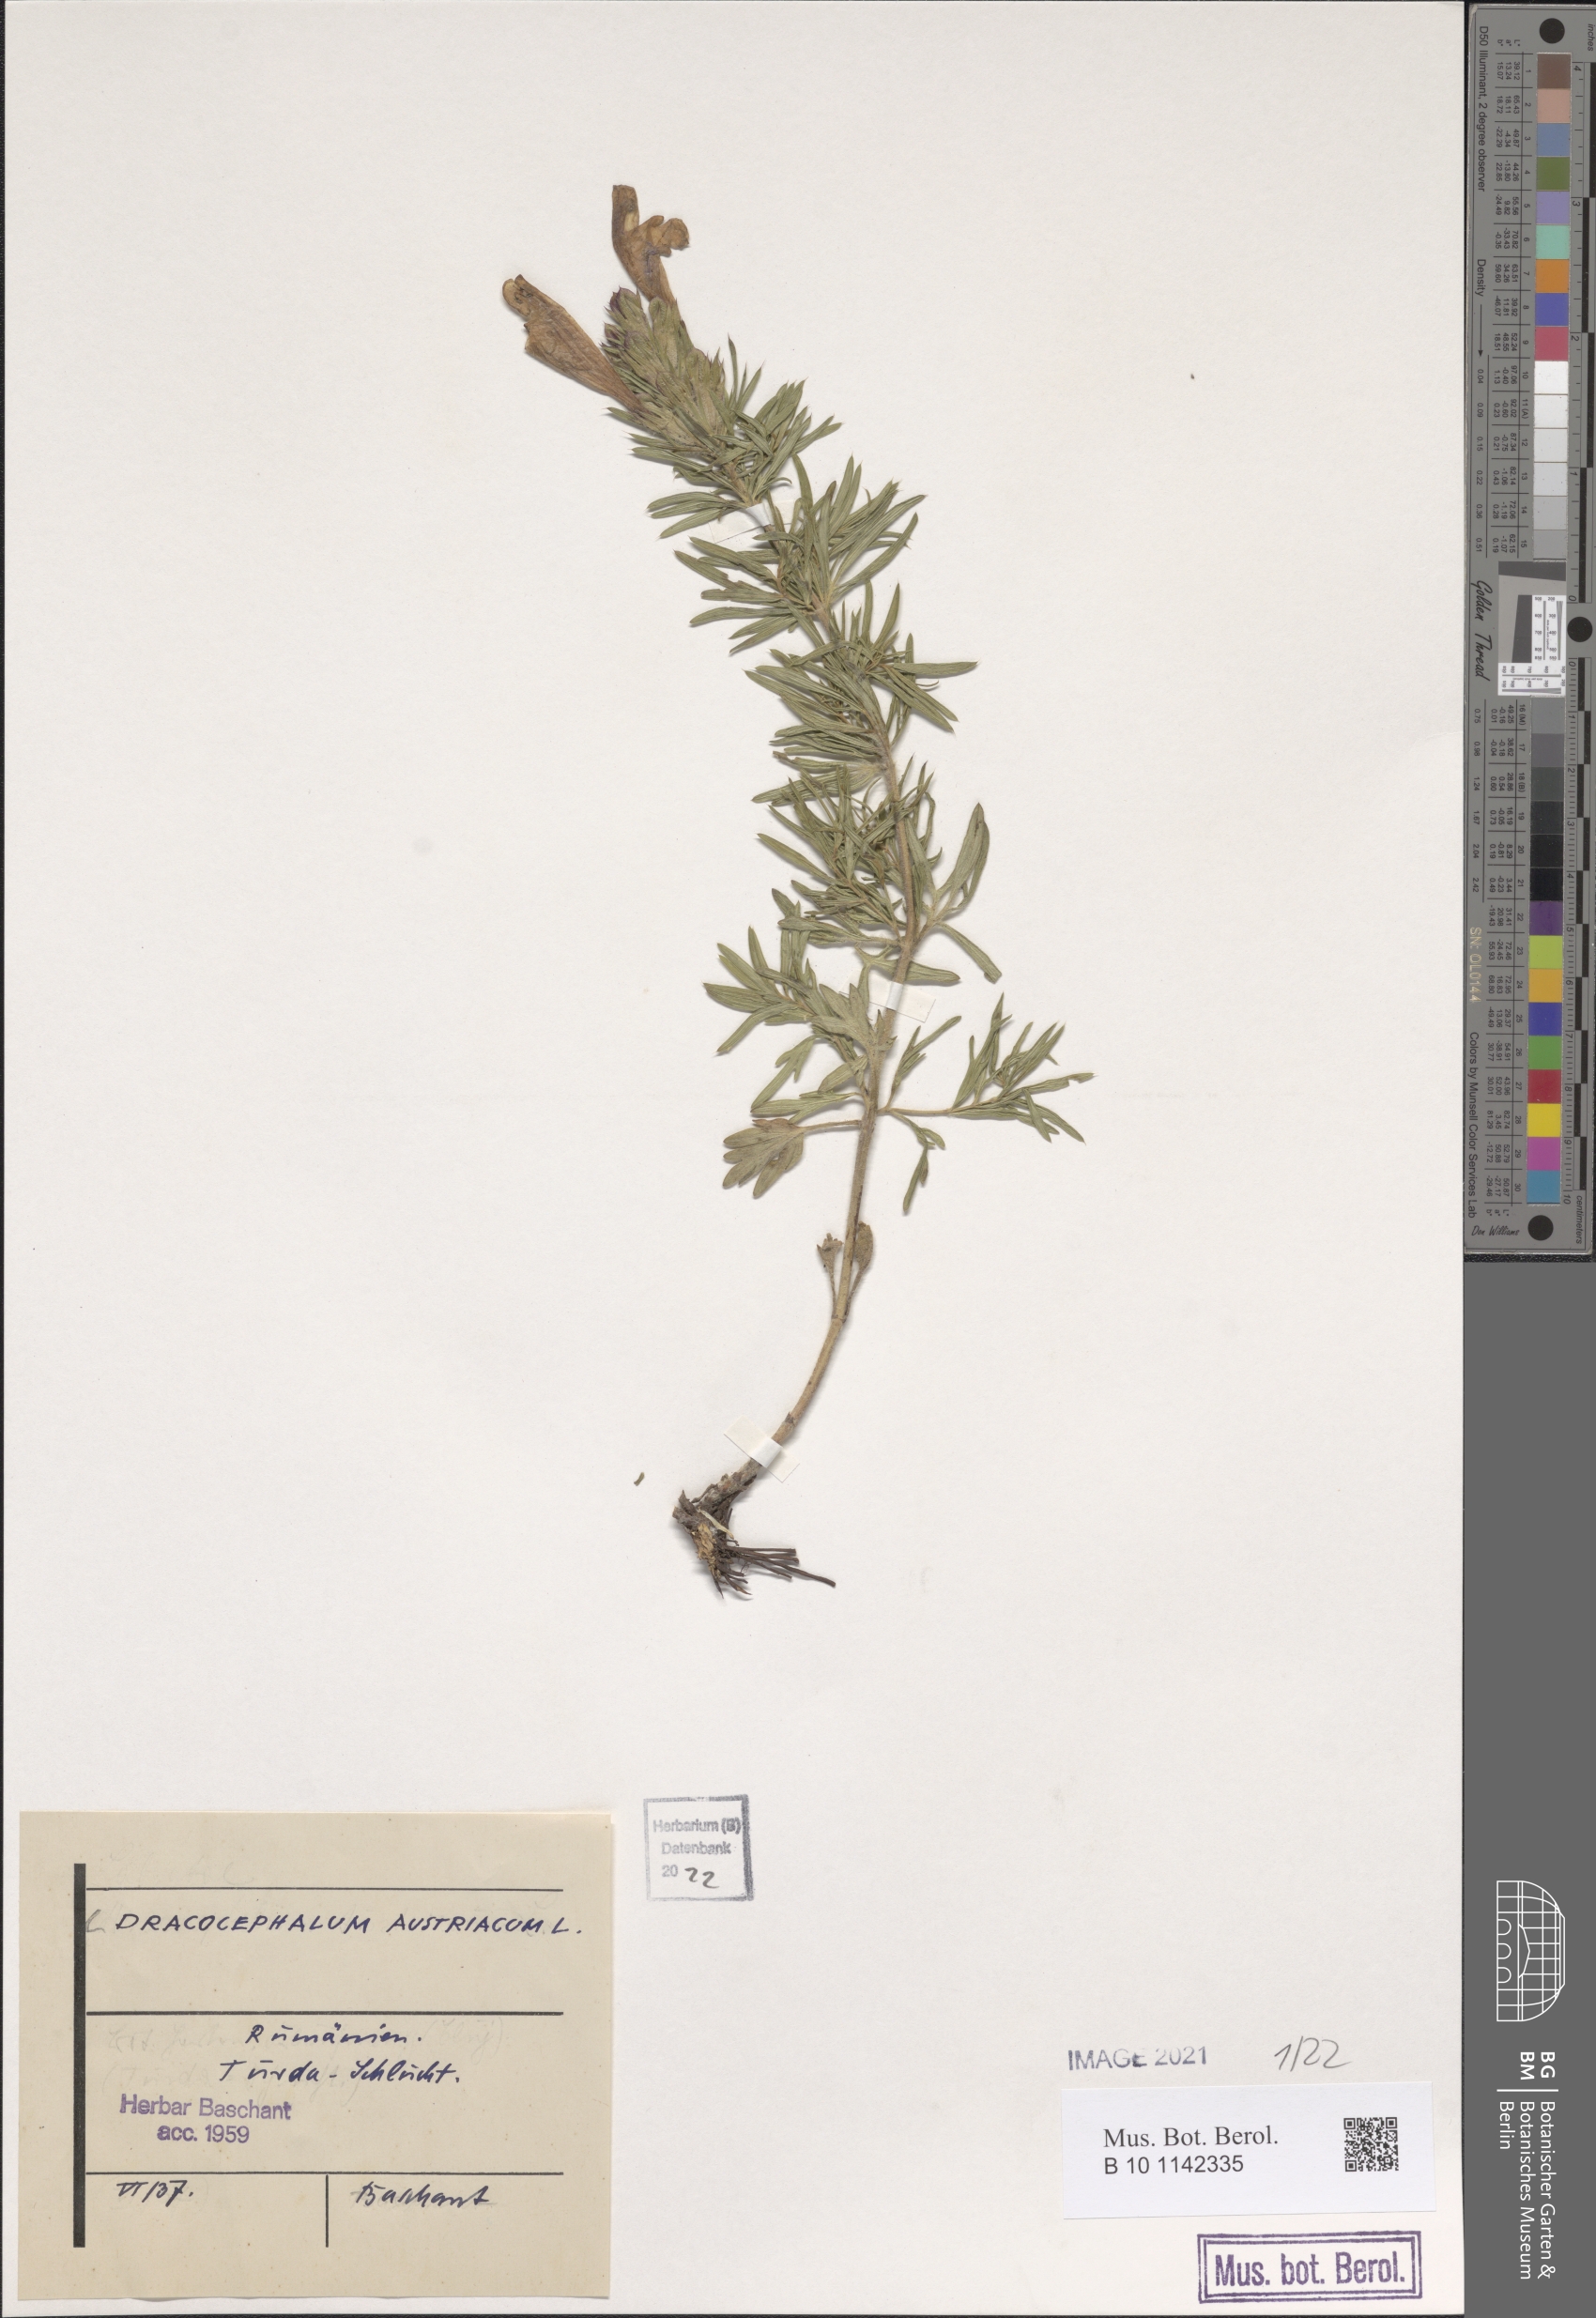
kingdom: Plantae
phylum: Tracheophyta
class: Magnoliopsida
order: Lamiales
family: Lamiaceae
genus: Dracocephalum
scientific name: Dracocephalum austriacum
